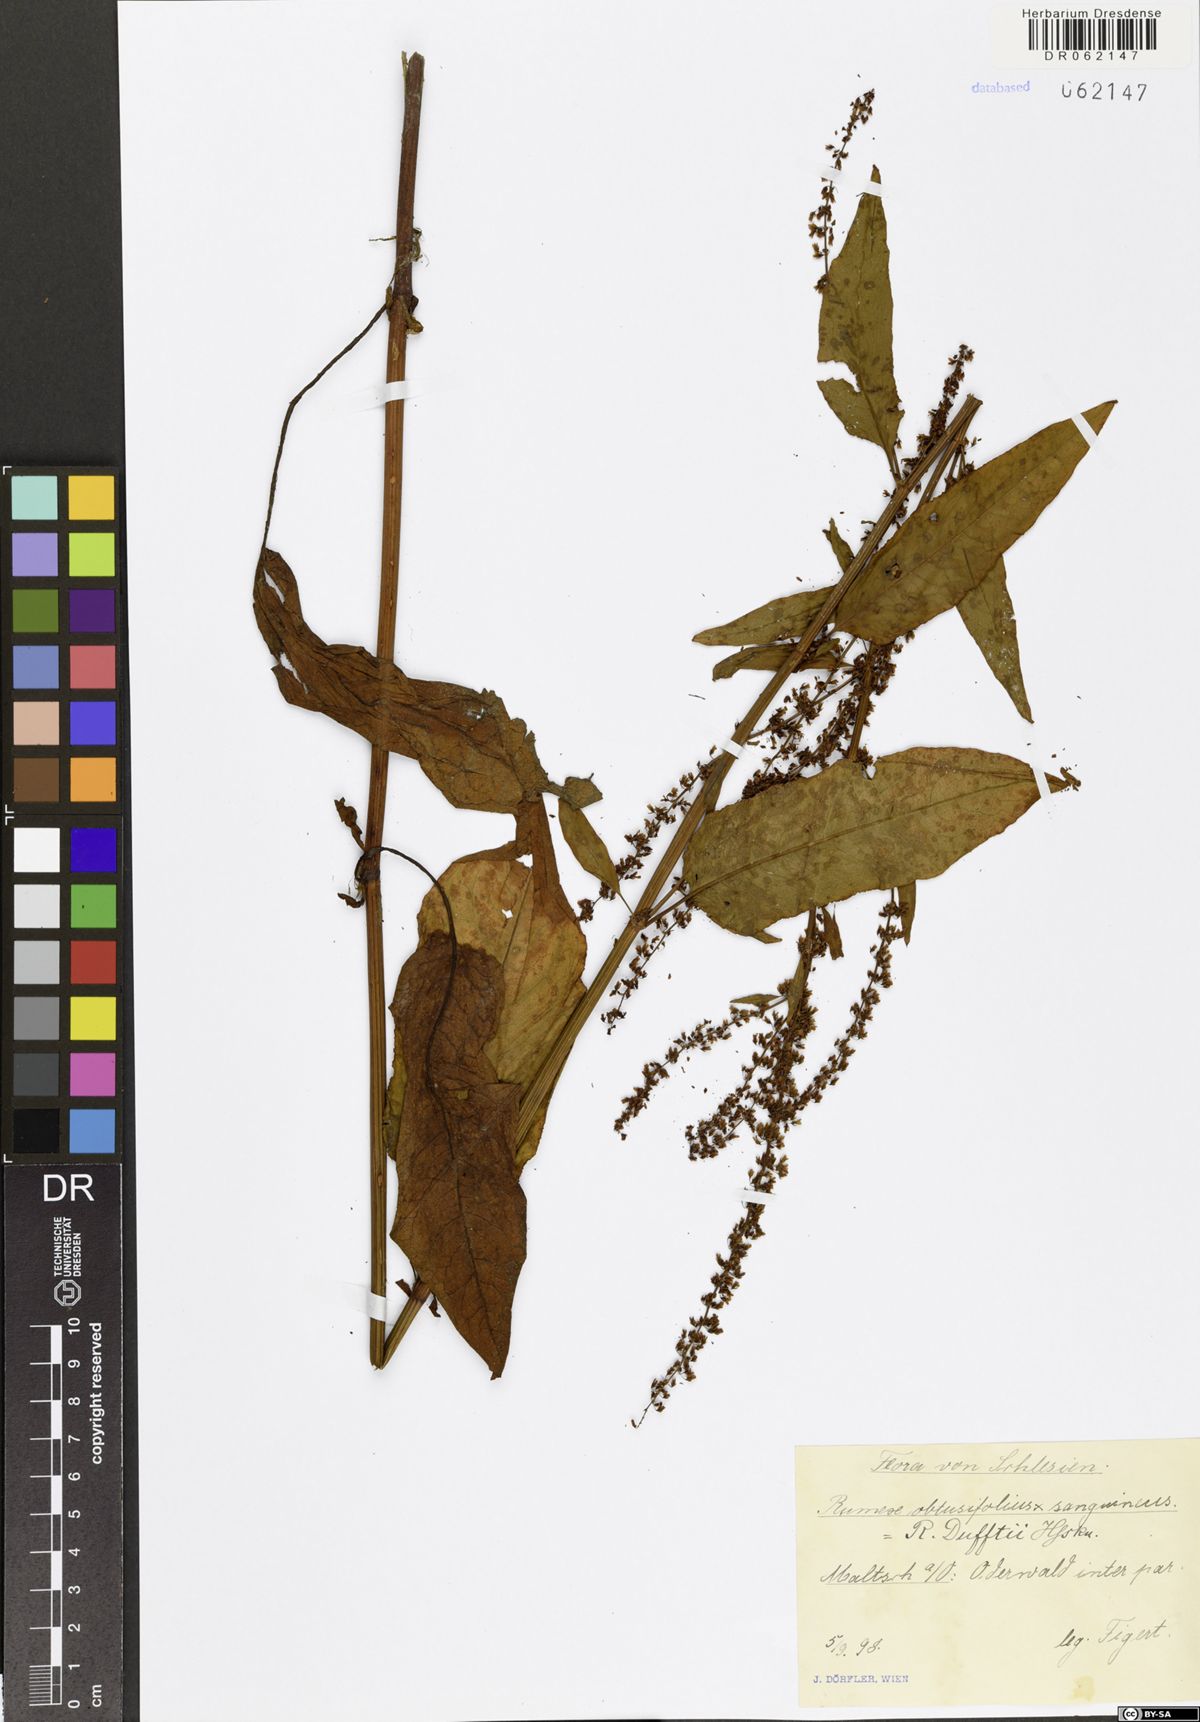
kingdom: Plantae
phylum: Tracheophyta
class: Magnoliopsida
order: Caryophyllales
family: Polygonaceae
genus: Rumex
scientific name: Rumex dufftii
